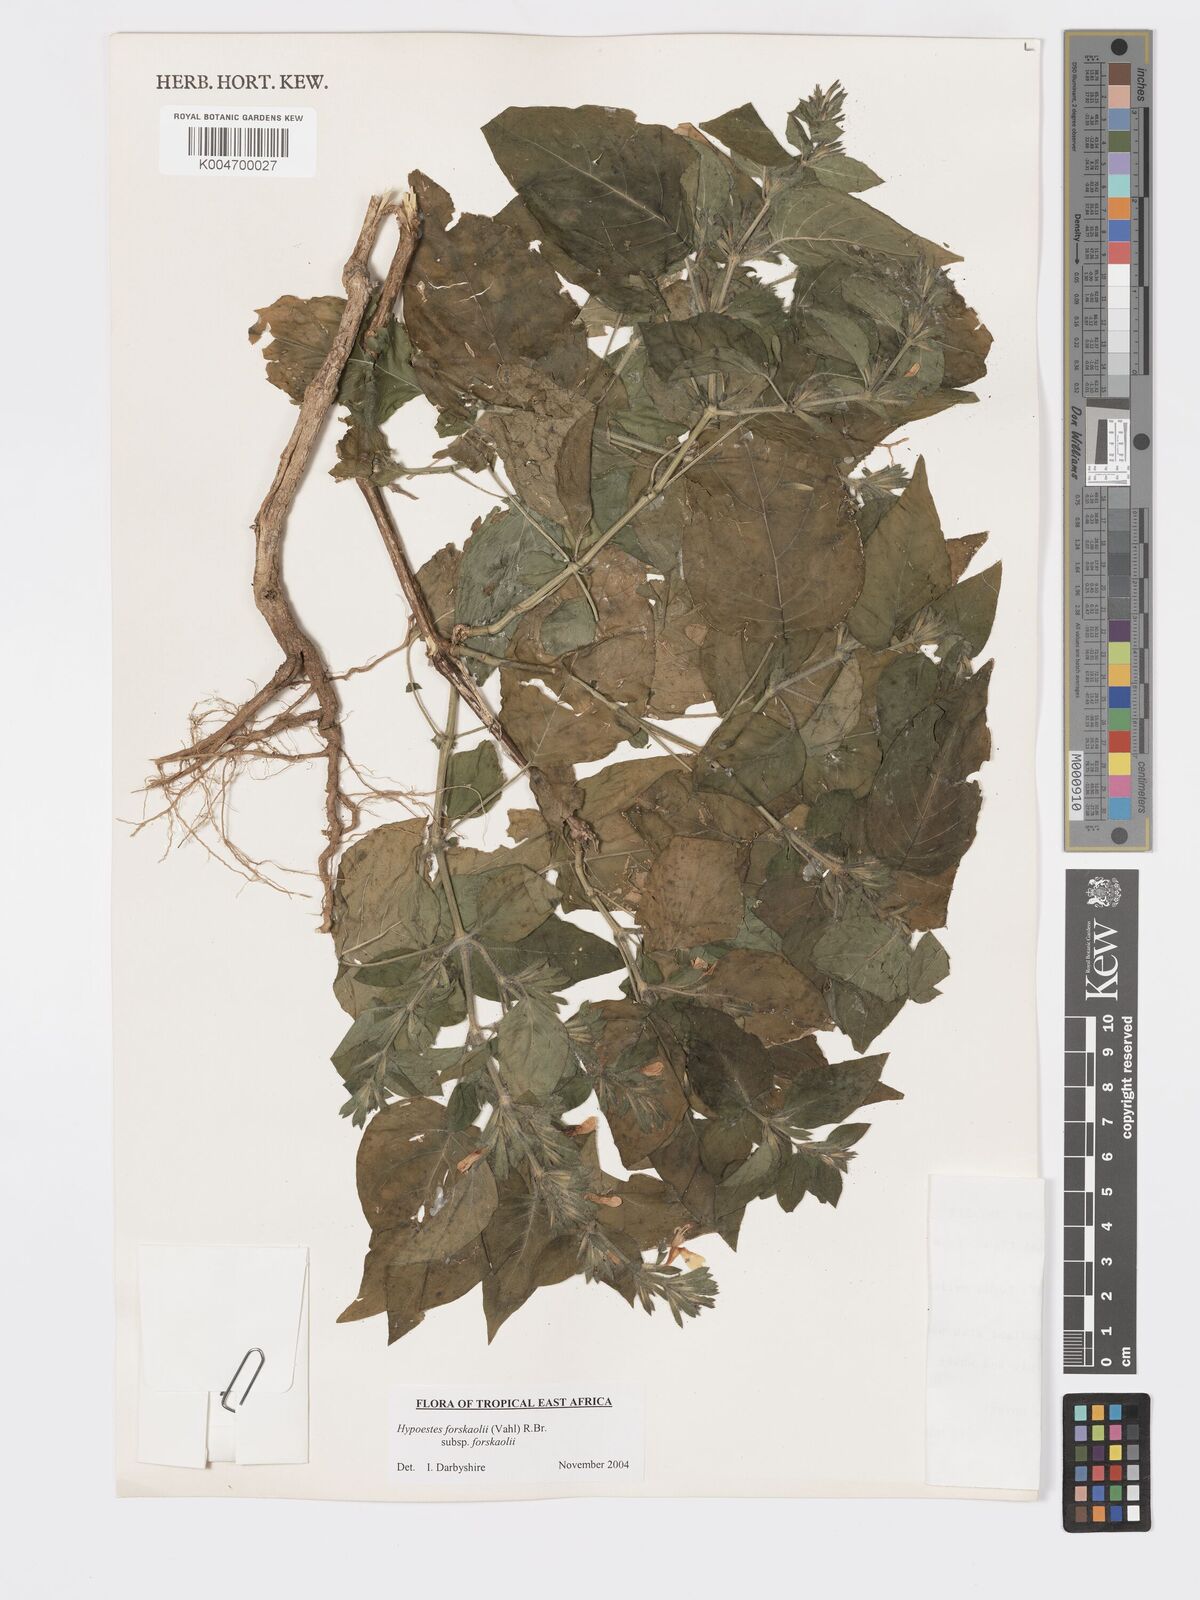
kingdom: Plantae
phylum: Tracheophyta
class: Magnoliopsida
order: Lamiales
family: Acanthaceae
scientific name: Acanthaceae
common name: Acanthaceae
